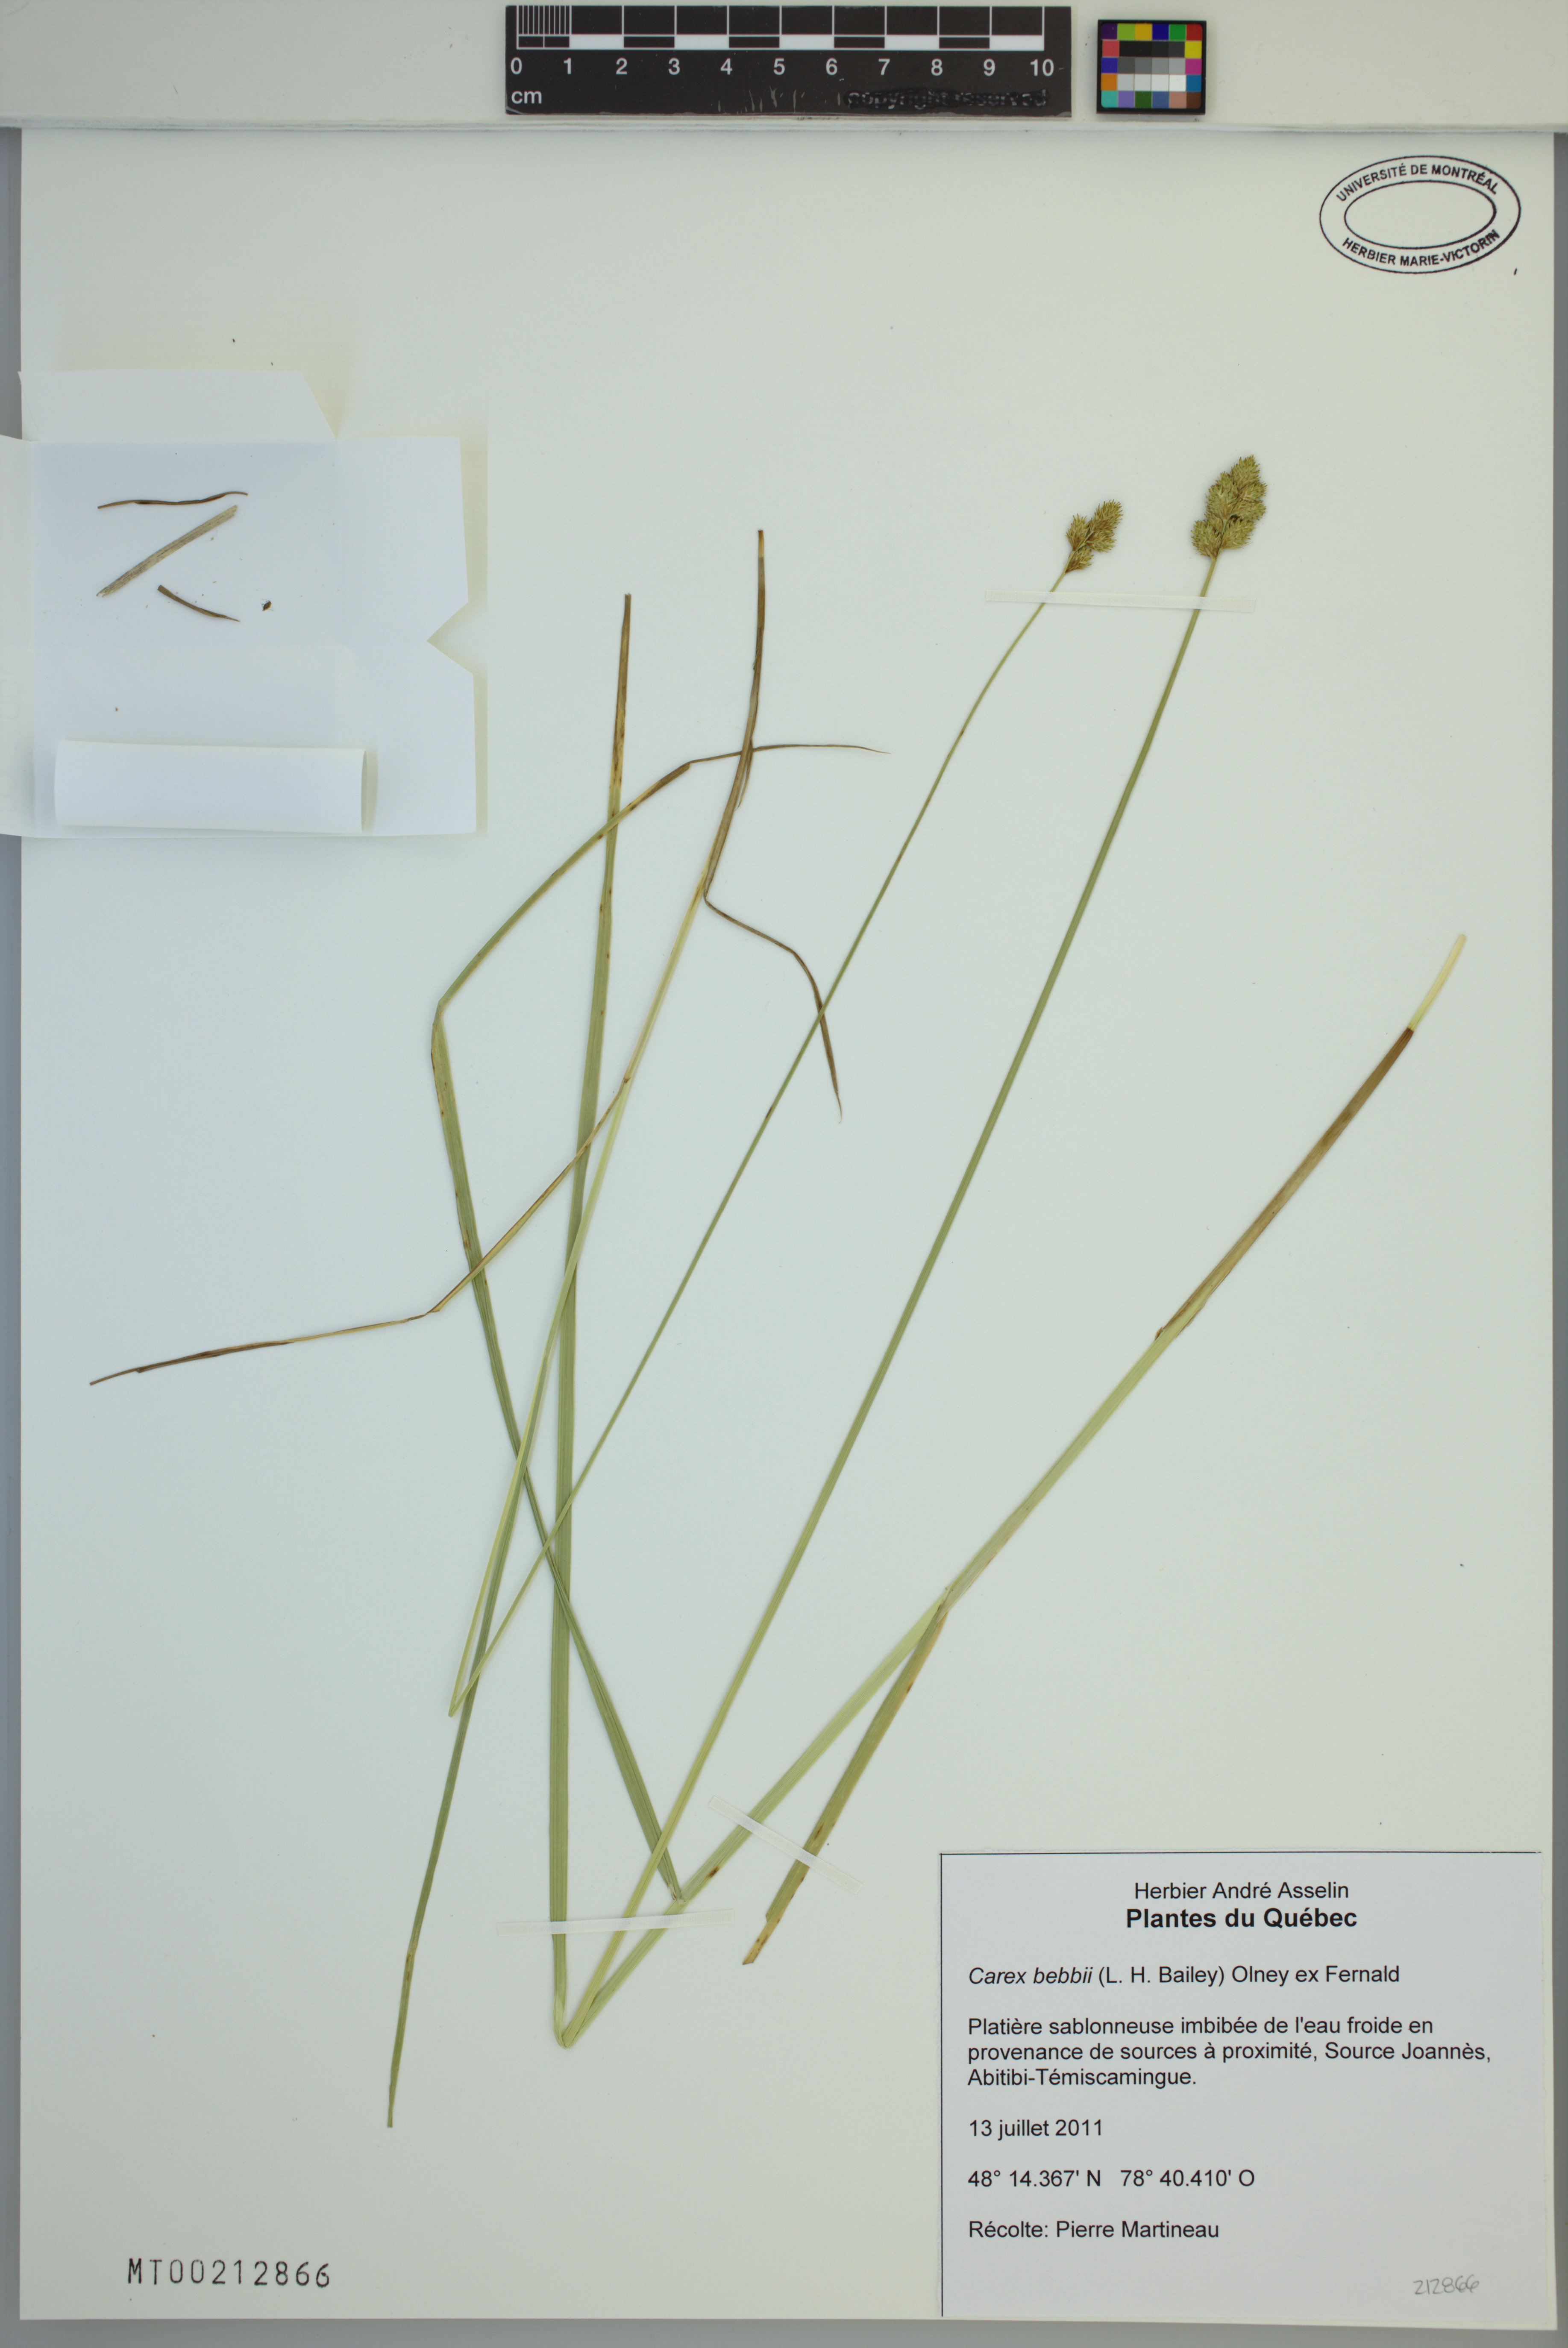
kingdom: Plantae
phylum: Tracheophyta
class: Liliopsida
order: Poales
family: Cyperaceae
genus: Carex
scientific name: Carex bebbii
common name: Bebb's sedge
